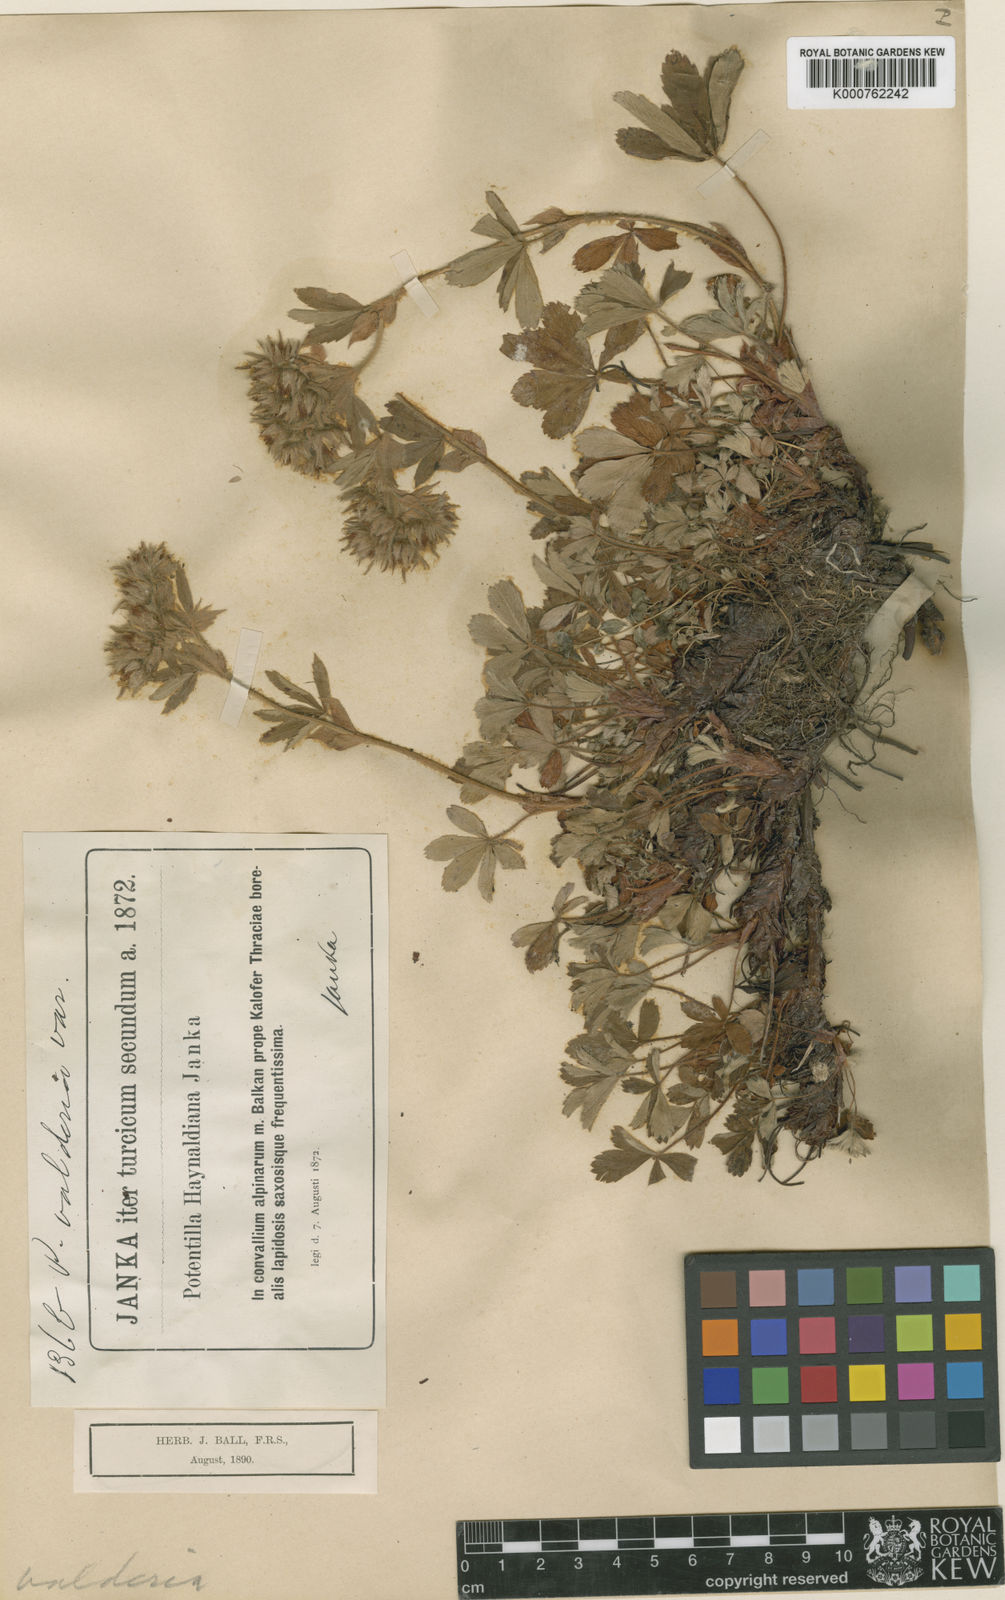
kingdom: Plantae
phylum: Tracheophyta
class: Magnoliopsida
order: Rosales
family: Rosaceae
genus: Potentilla
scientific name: Potentilla haynaldiana
